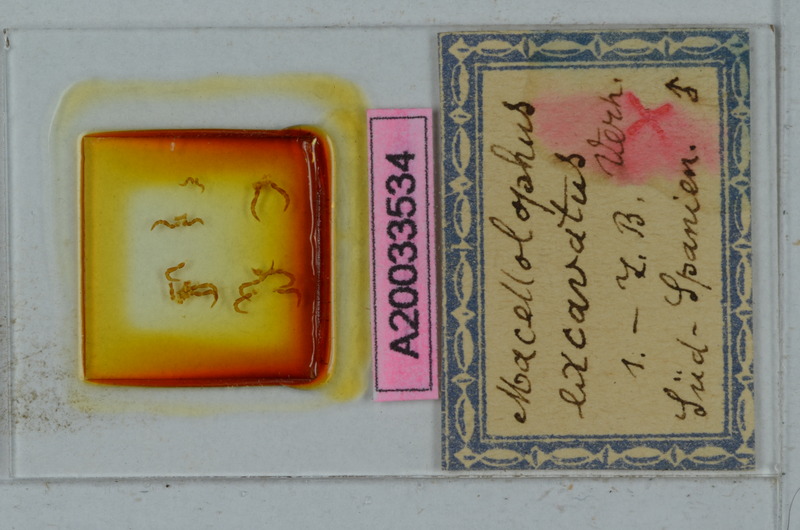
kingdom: Animalia
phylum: Arthropoda
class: Diplopoda
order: Polydesmida
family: Chelodesmidae
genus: Macellolophus
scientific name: Macellolophus rubromarginatus
